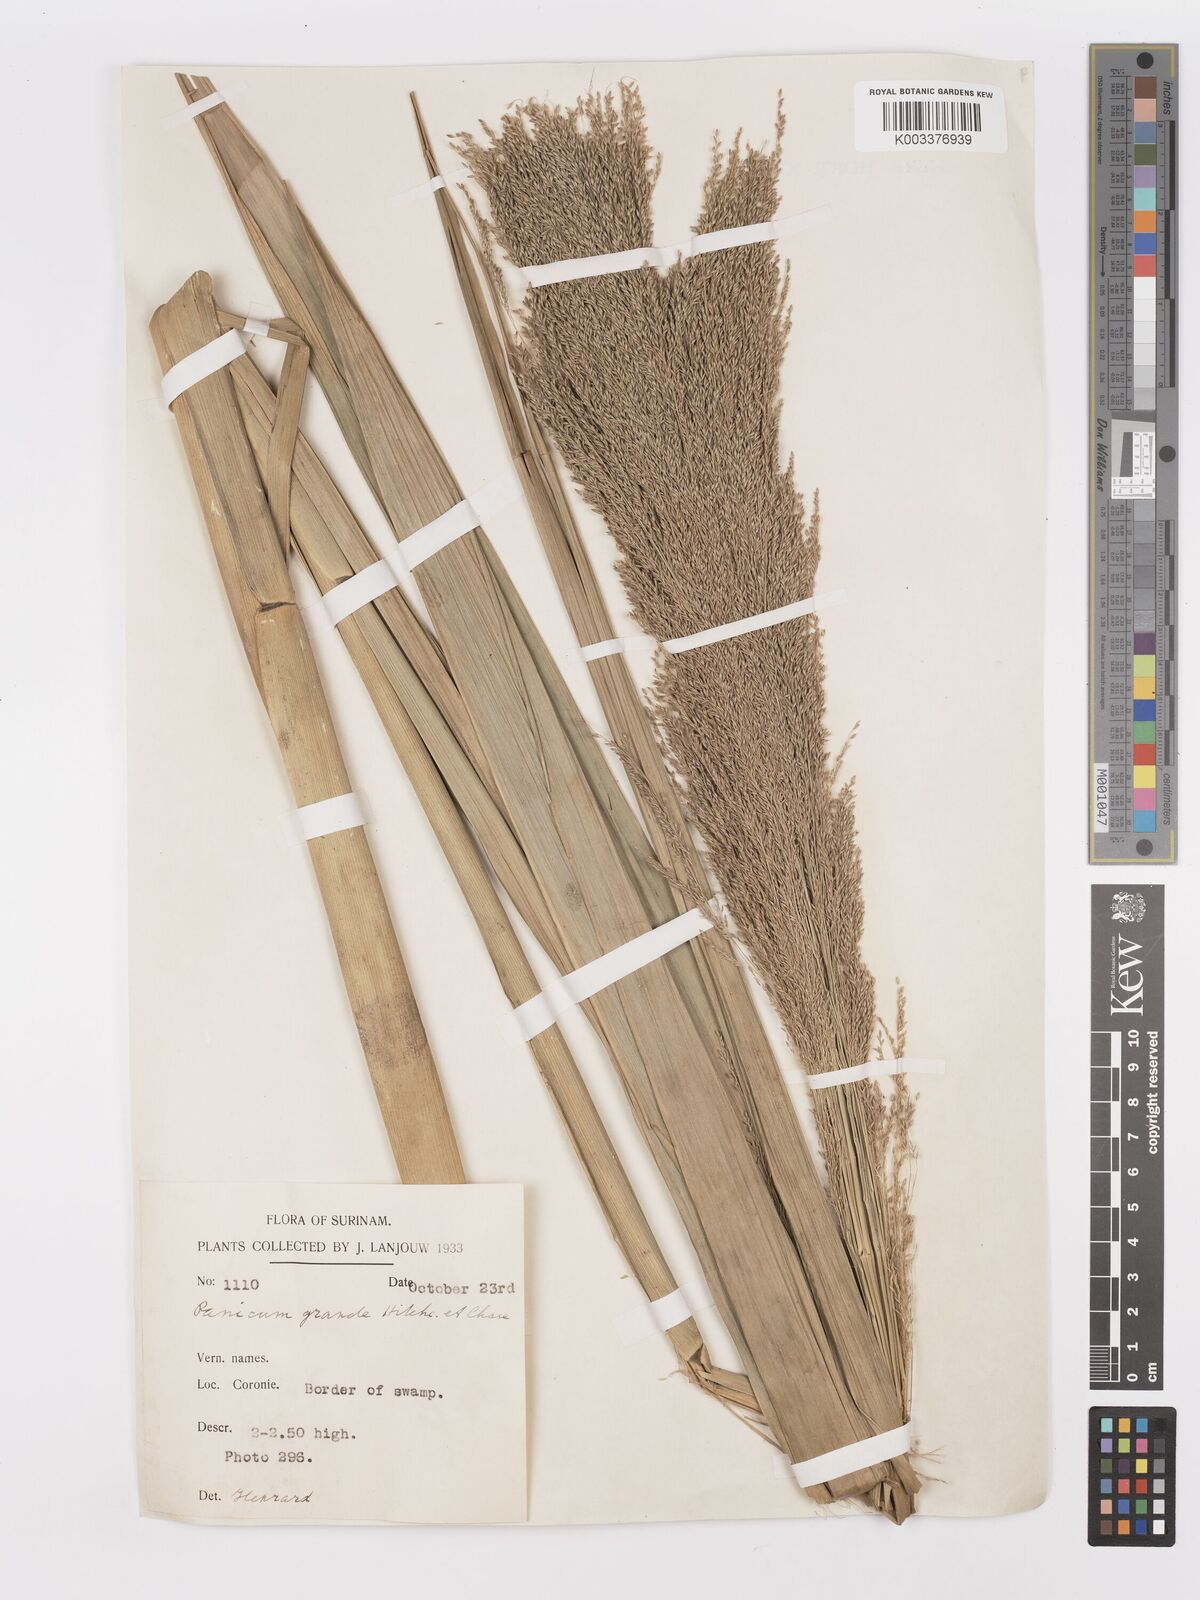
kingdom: Plantae
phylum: Tracheophyta
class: Liliopsida
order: Poales
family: Poaceae
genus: Panicum
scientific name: Panicum subalbidum
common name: Elbow buffalo grass
